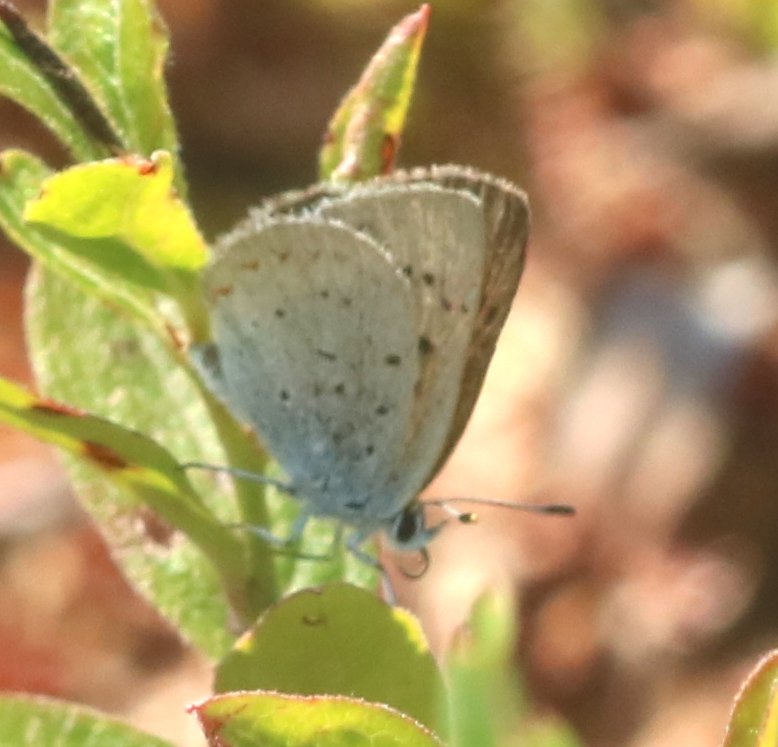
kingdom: Animalia
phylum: Arthropoda
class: Insecta
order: Lepidoptera
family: Sesiidae
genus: Sesia
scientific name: Sesia Lycaena epixanthe
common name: Bog Copper
